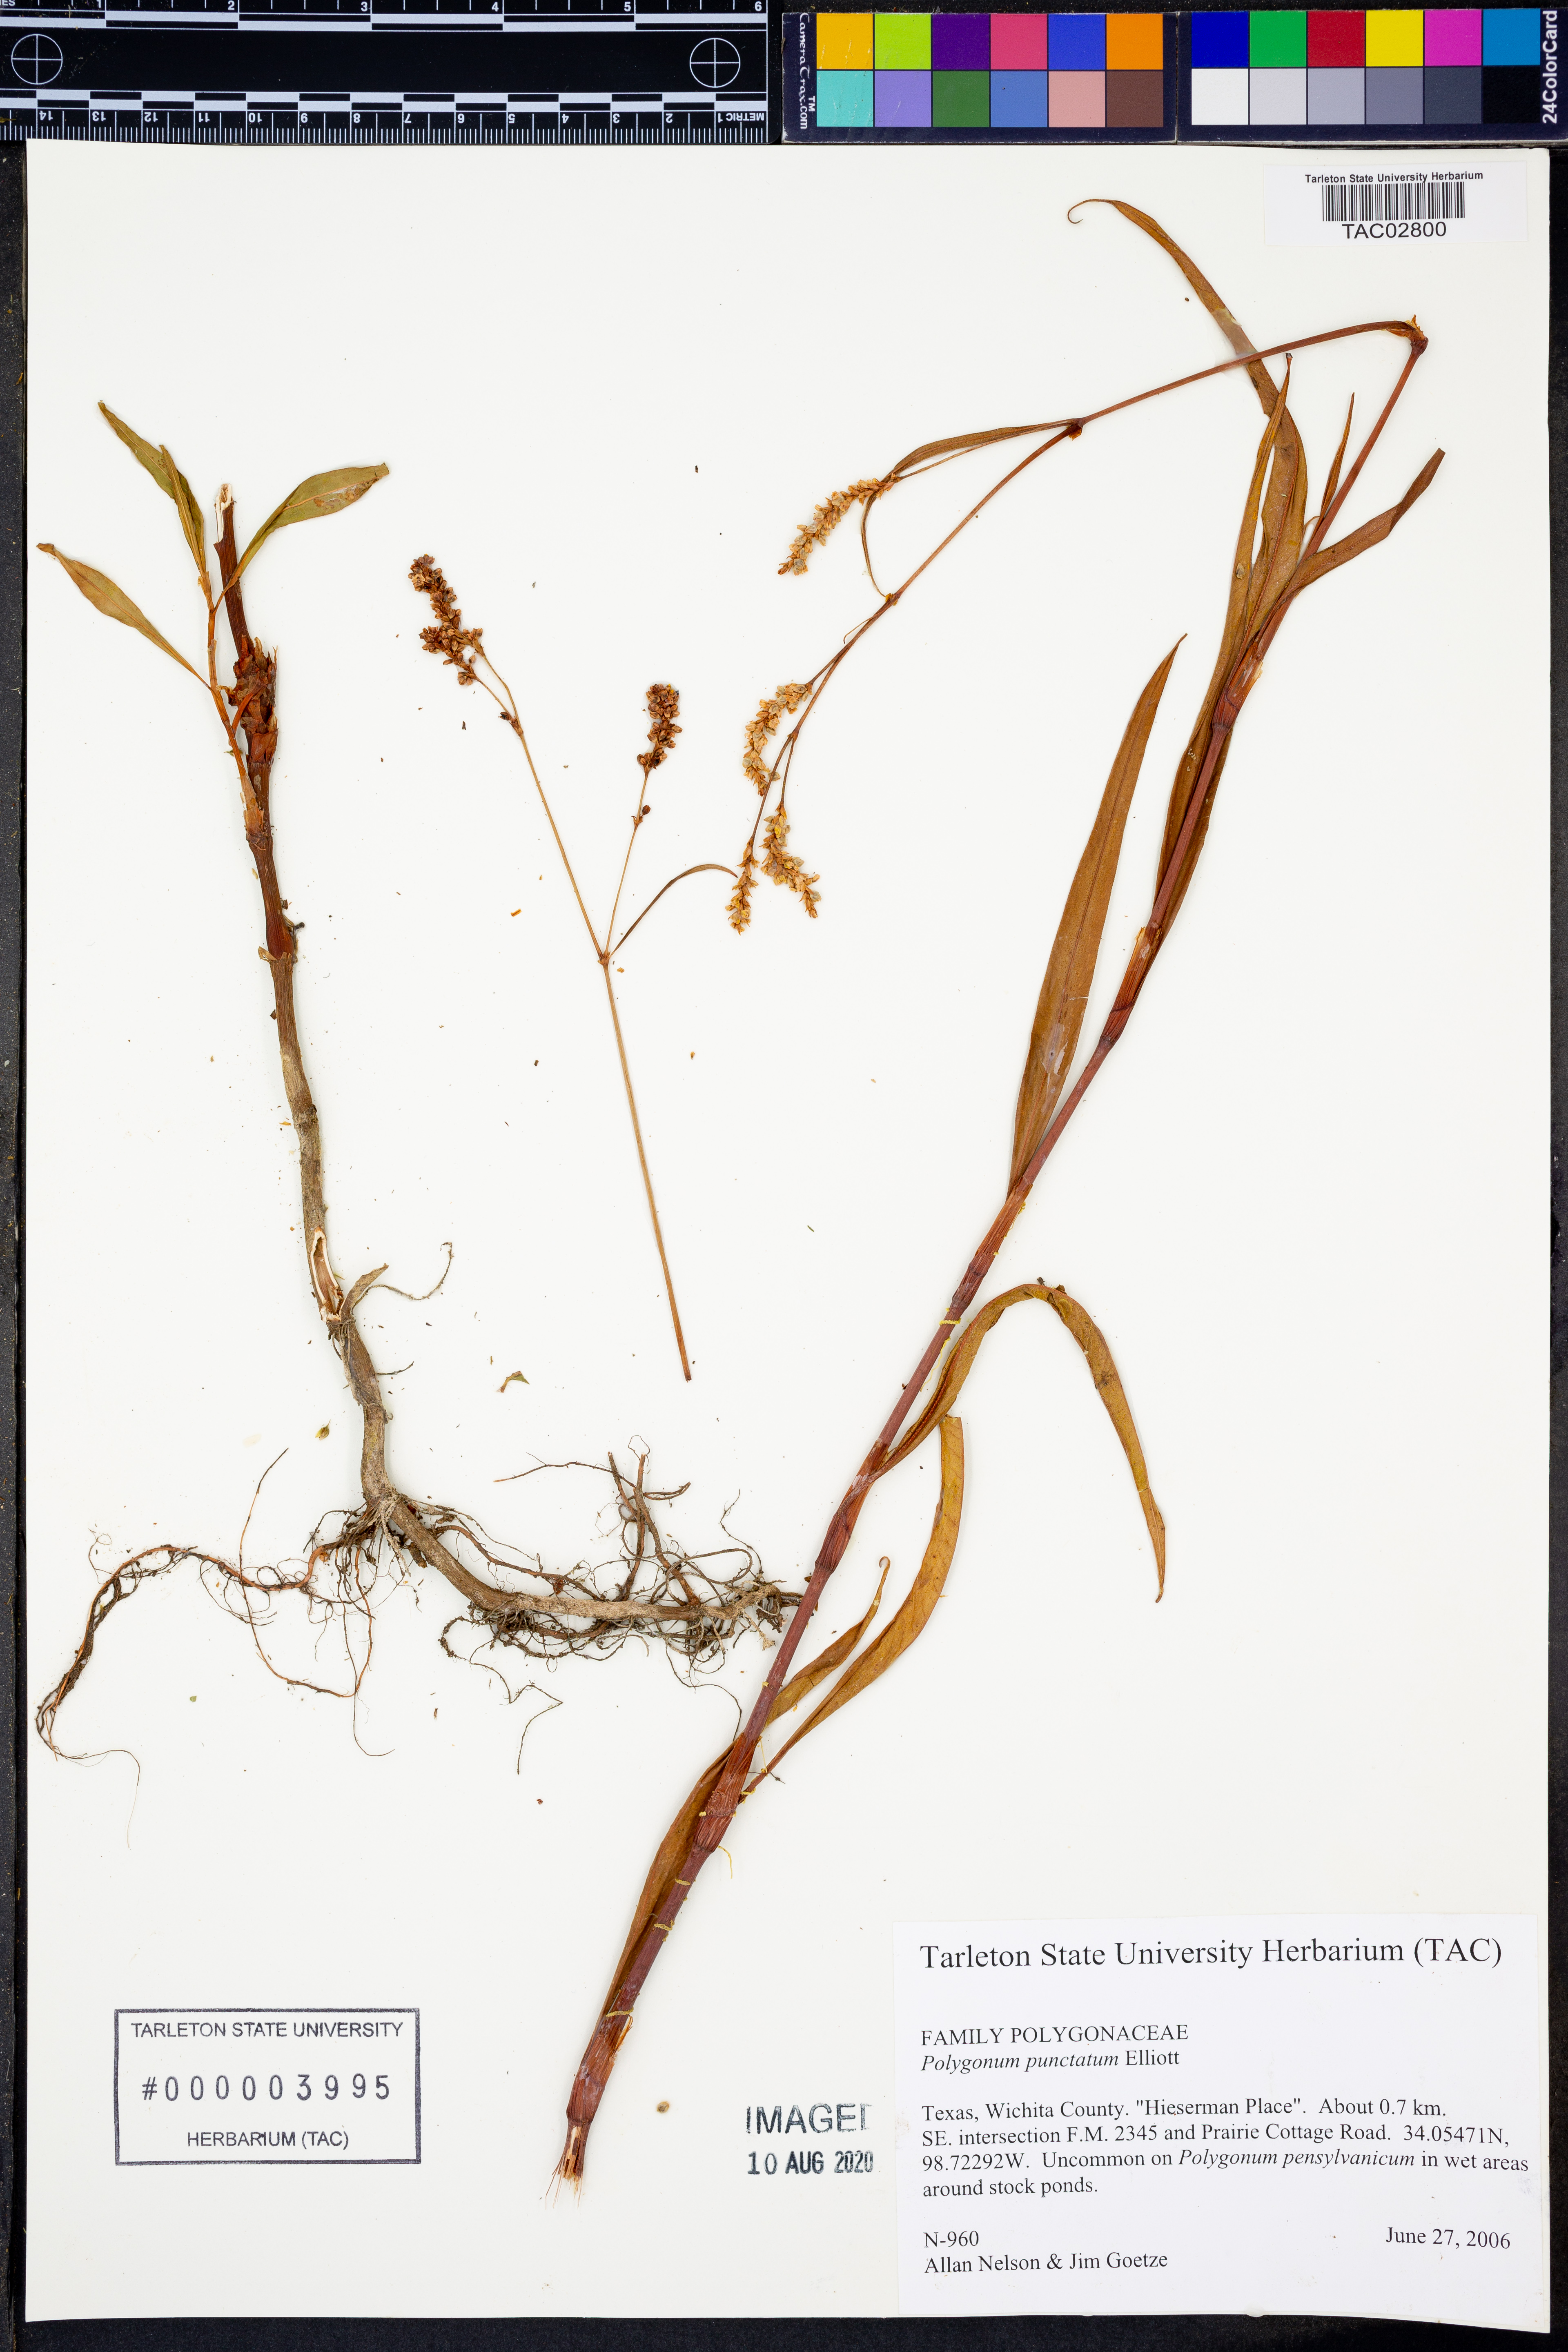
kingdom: Plantae
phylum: Tracheophyta
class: Magnoliopsida
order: Caryophyllales
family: Polygonaceae
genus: Persicaria
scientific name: Persicaria punctata
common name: Dotted smartweed
